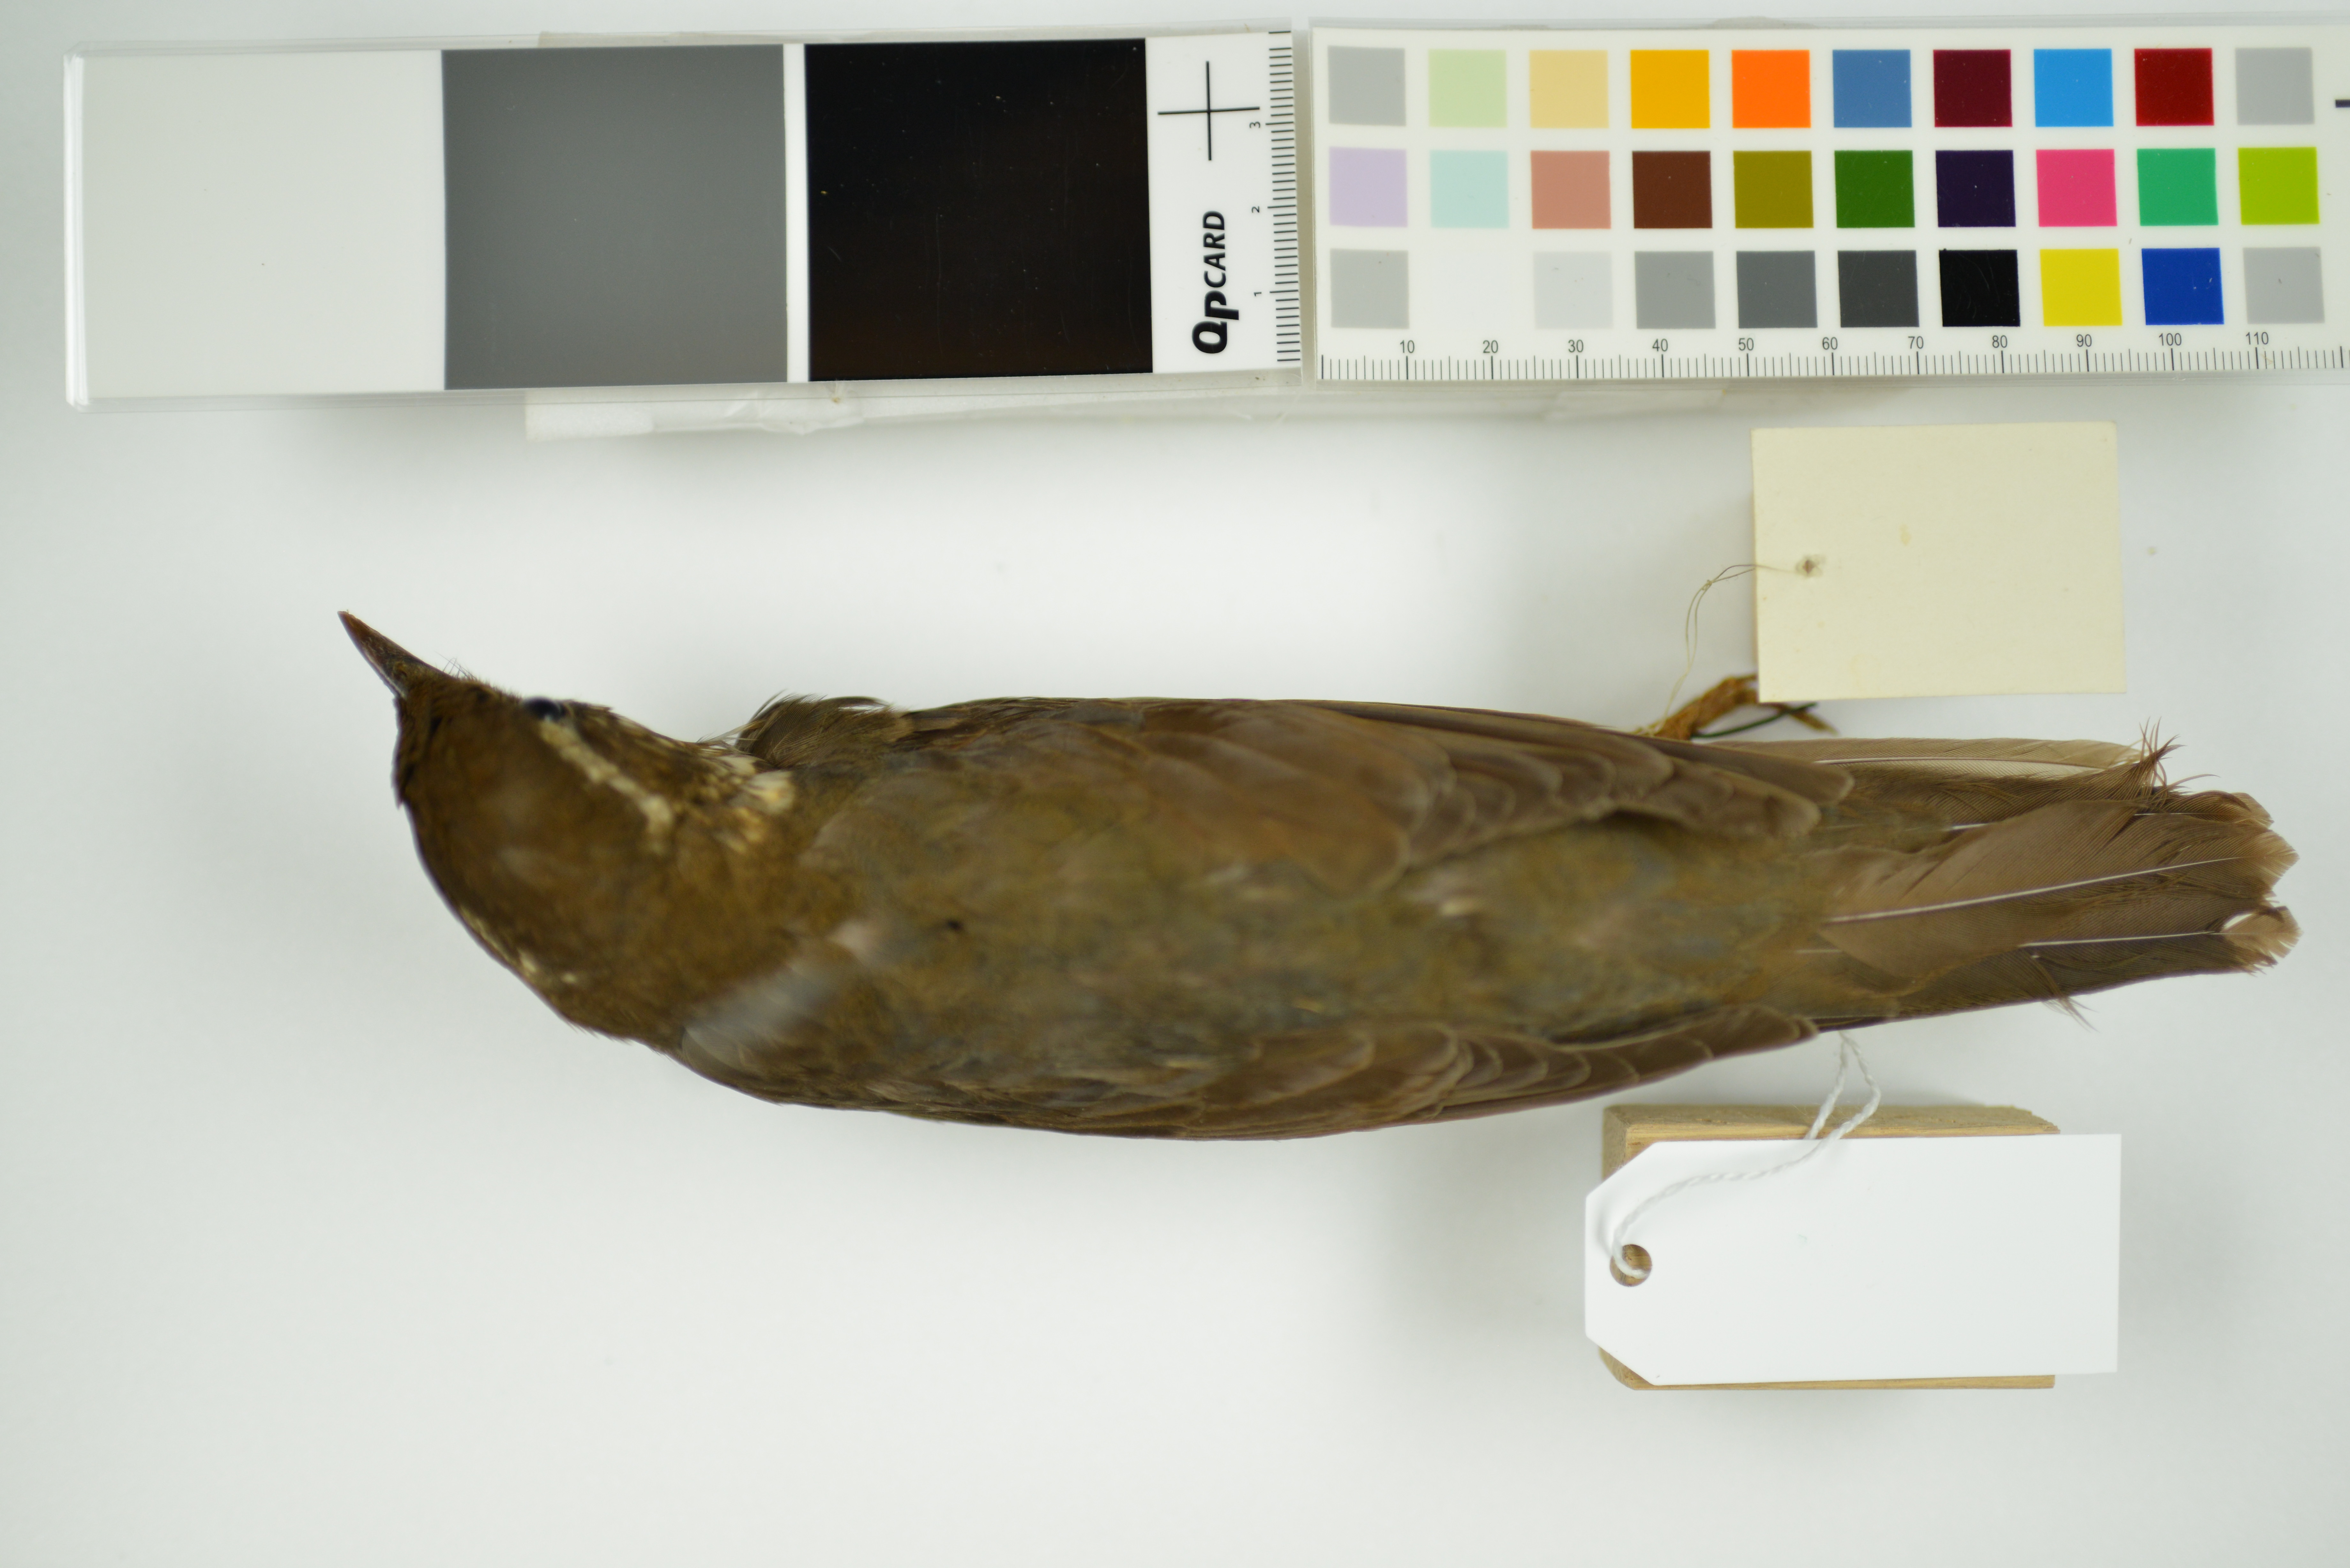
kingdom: Animalia
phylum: Chordata
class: Aves
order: Passeriformes
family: Turdidae
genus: Geokichla
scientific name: Geokichla sibirica
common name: Siberian thrush
